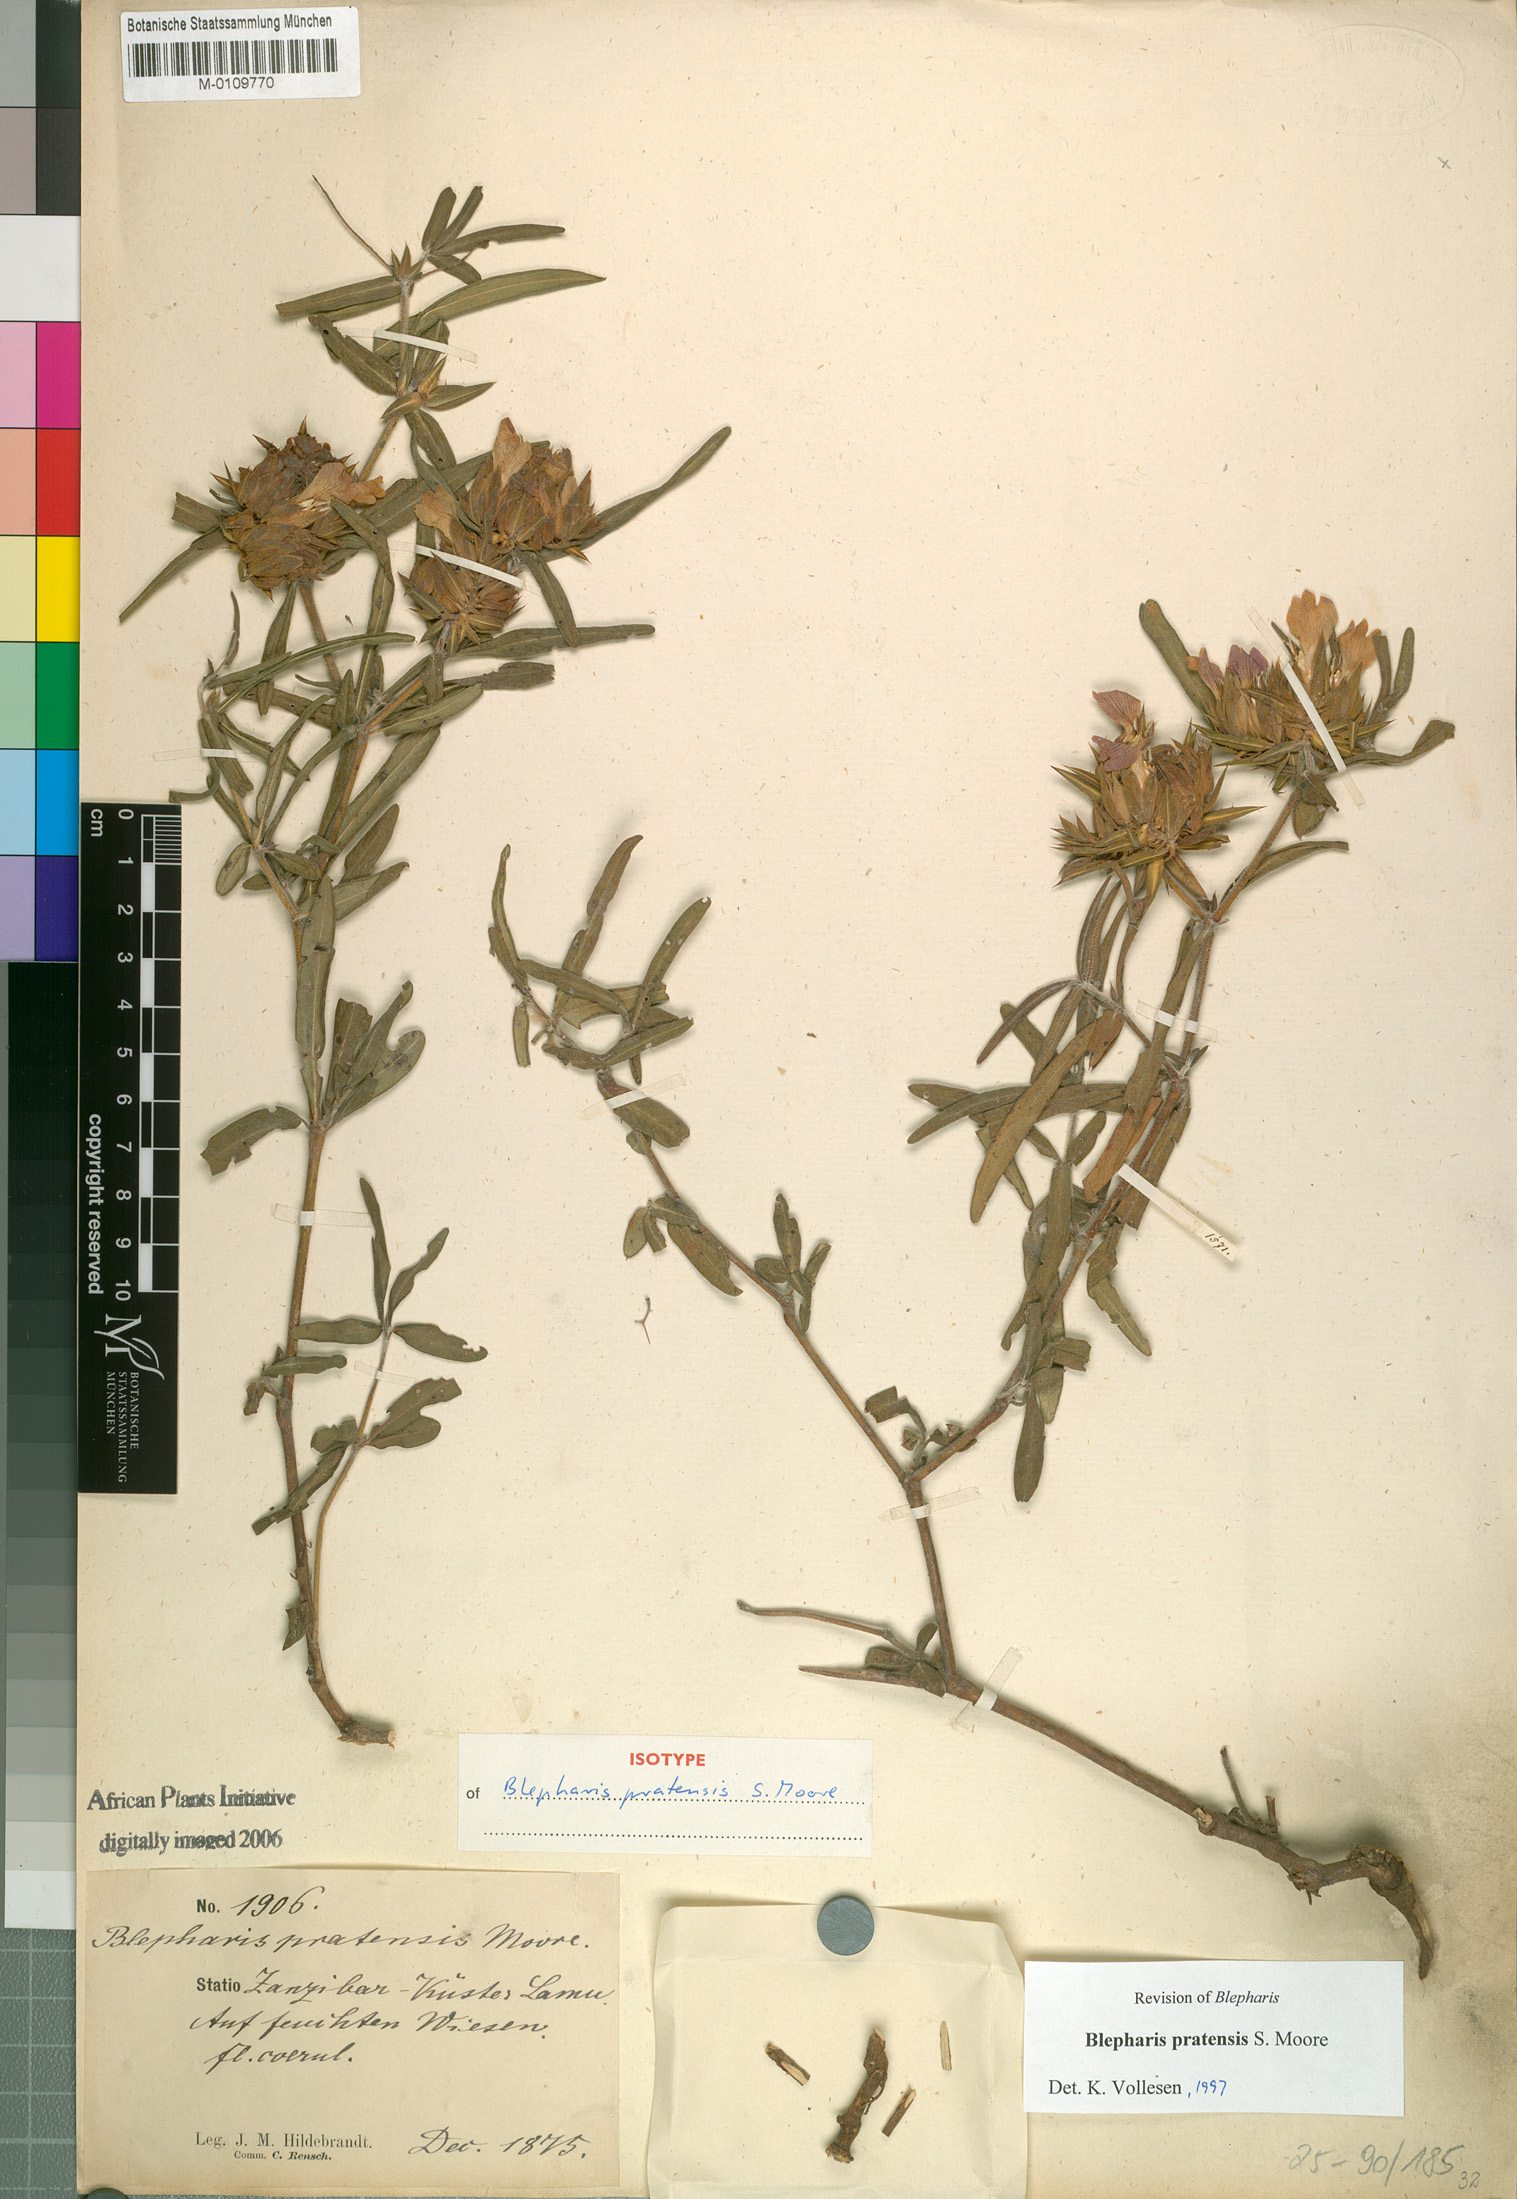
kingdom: Plantae
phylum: Tracheophyta
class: Magnoliopsida
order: Lamiales
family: Acanthaceae
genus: Blepharis
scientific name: Blepharis pratensis
